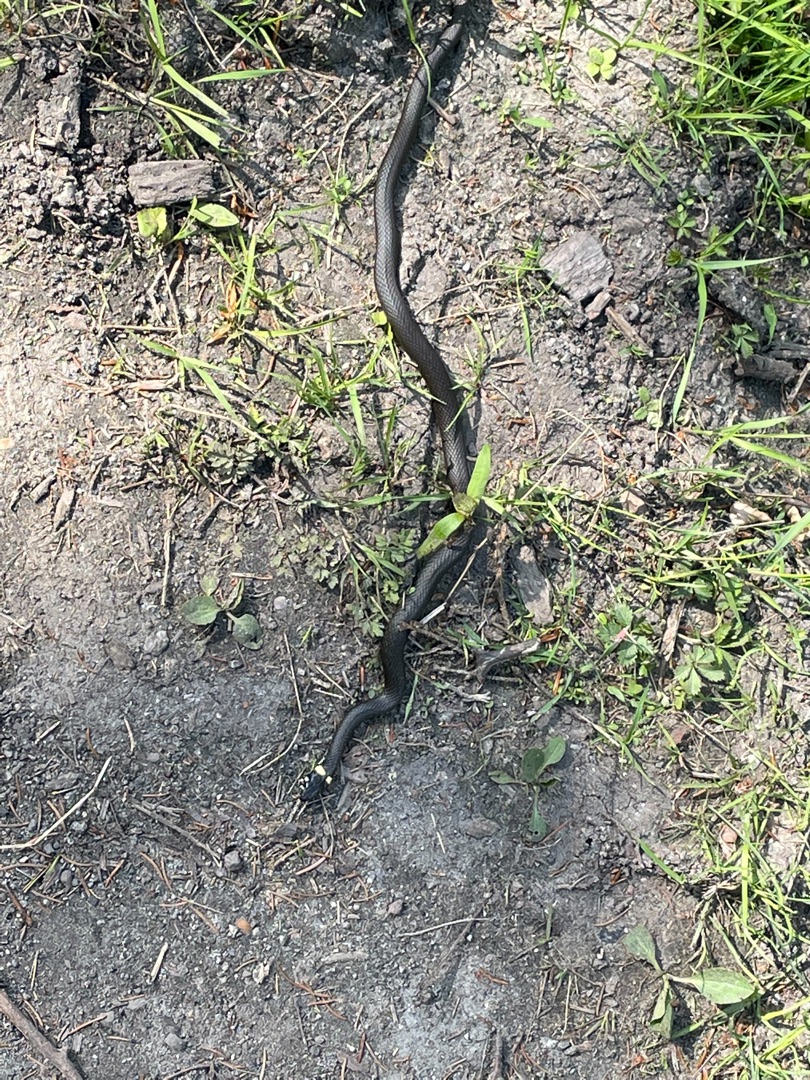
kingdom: Animalia
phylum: Chordata
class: Squamata
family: Colubridae
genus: Natrix
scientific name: Natrix natrix
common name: Snog
